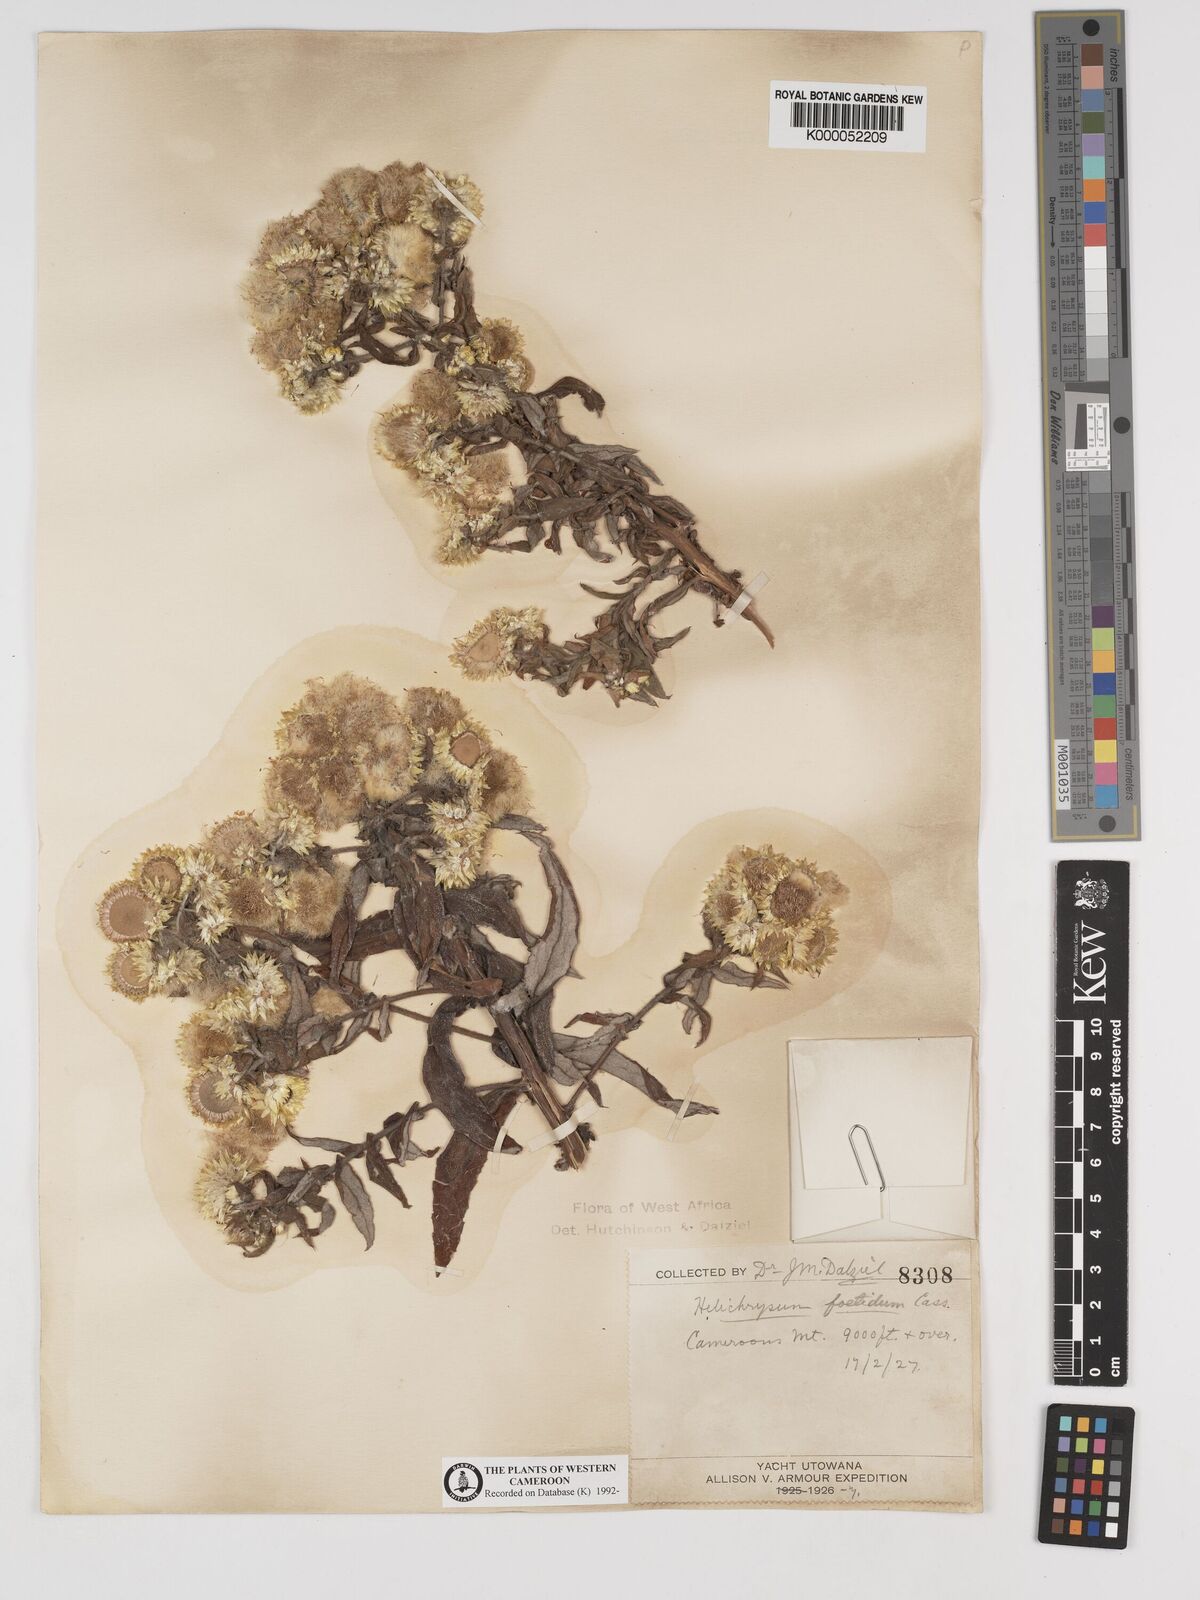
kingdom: Plantae
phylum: Tracheophyta
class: Magnoliopsida
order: Asterales
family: Asteraceae
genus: Helichrysum
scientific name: Helichrysum foetidum
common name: Stinking everlasting
